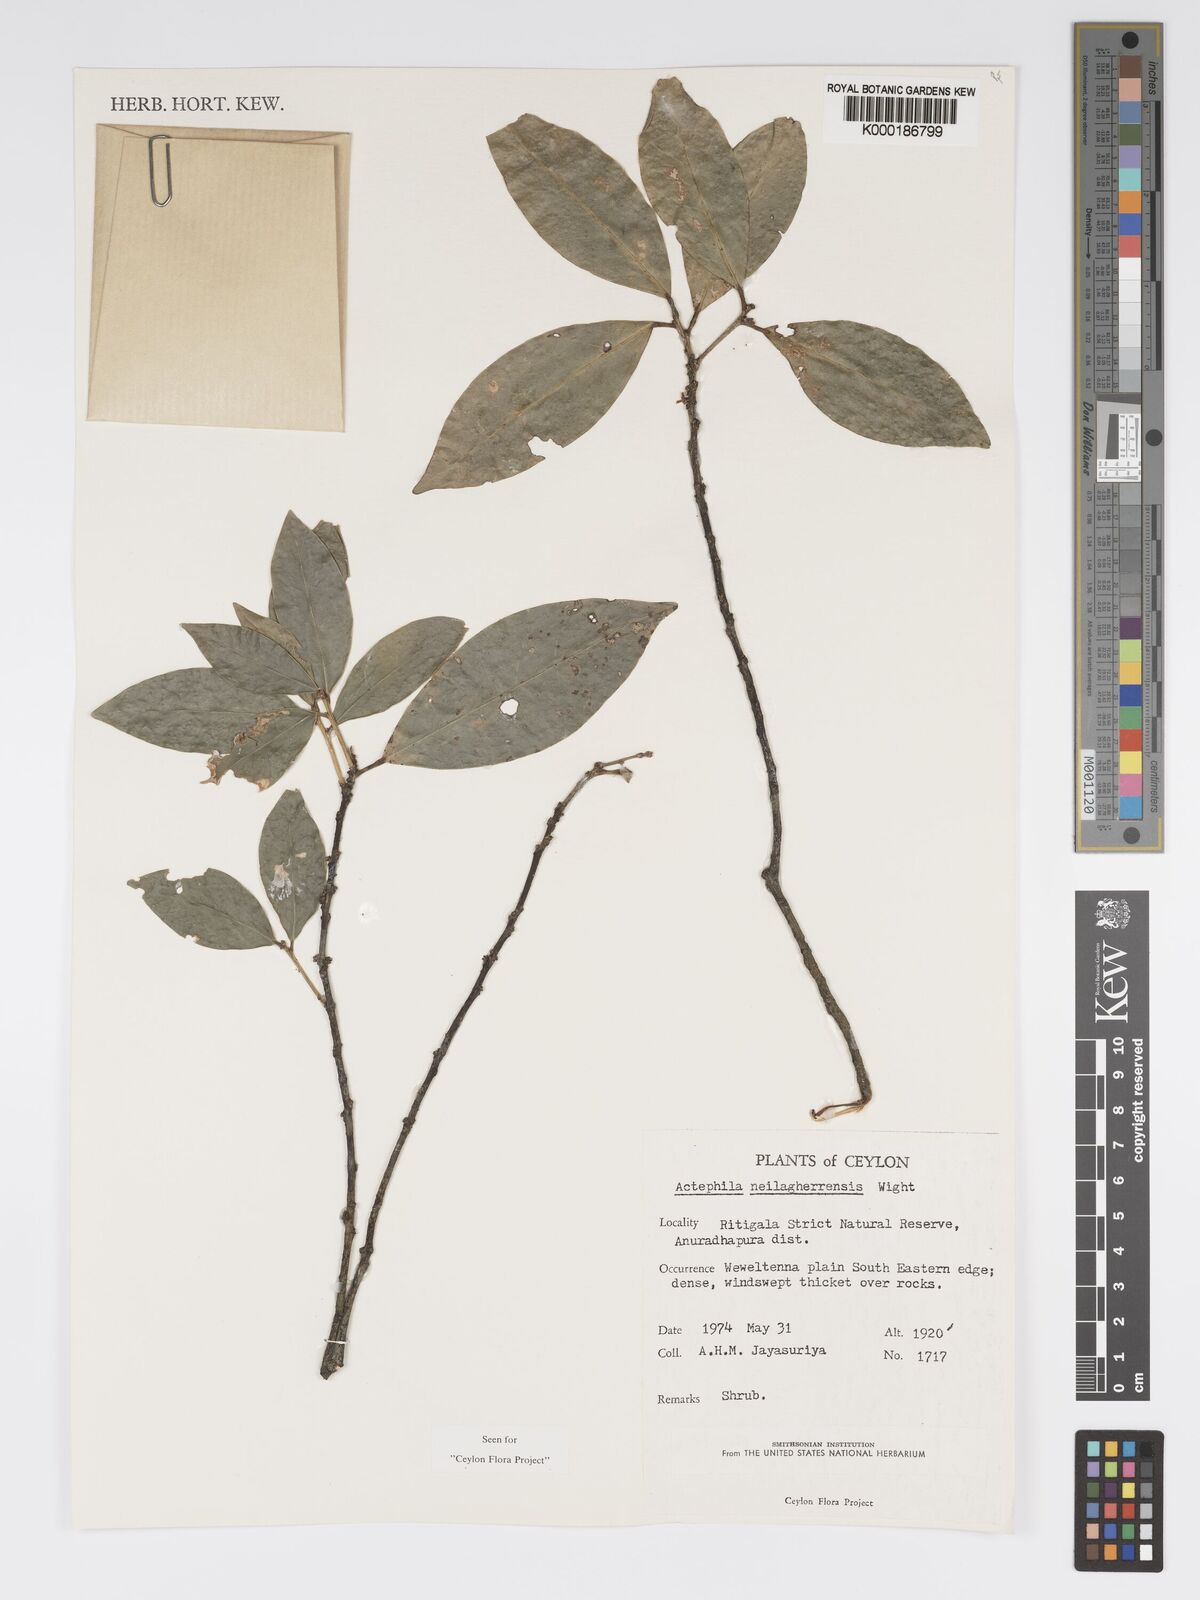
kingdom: Plantae
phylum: Tracheophyta
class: Magnoliopsida
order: Malpighiales
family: Phyllanthaceae
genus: Actephila
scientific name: Actephila excelsa
